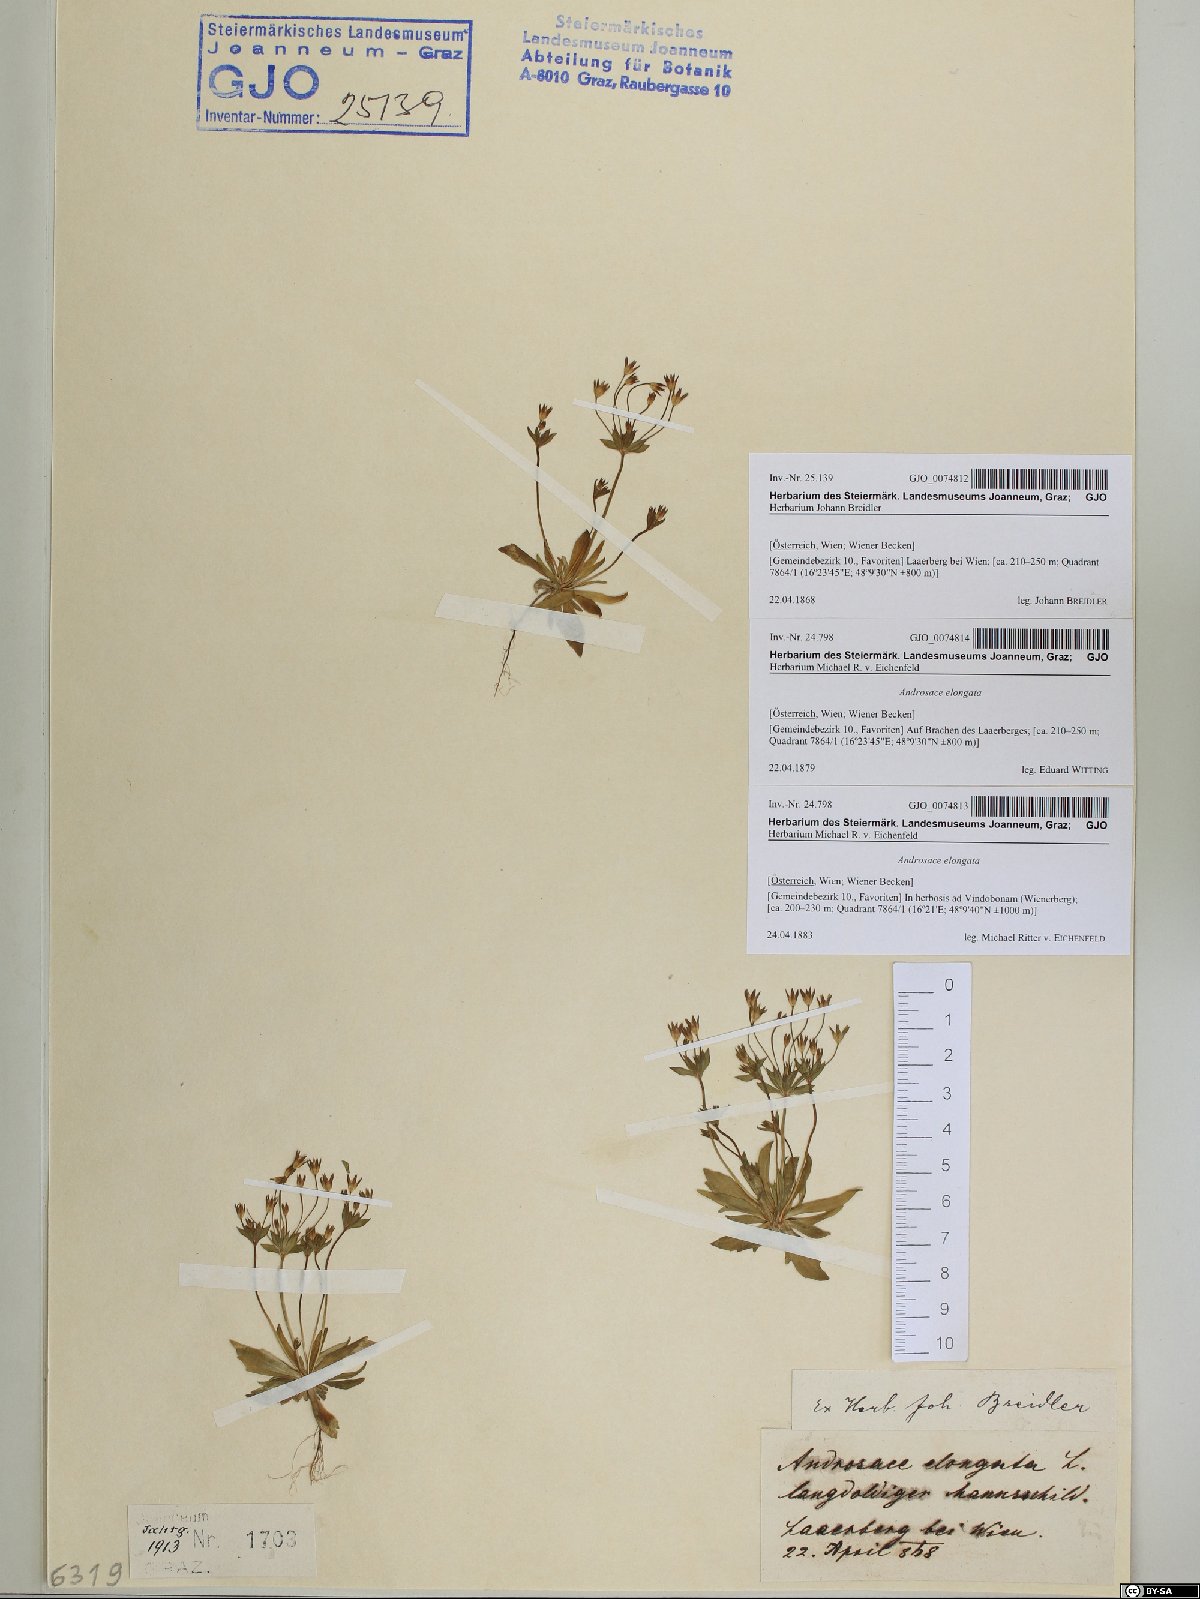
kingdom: Plantae
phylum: Tracheophyta
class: Magnoliopsida
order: Ericales
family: Primulaceae
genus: Androsace
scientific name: Androsace elongata
